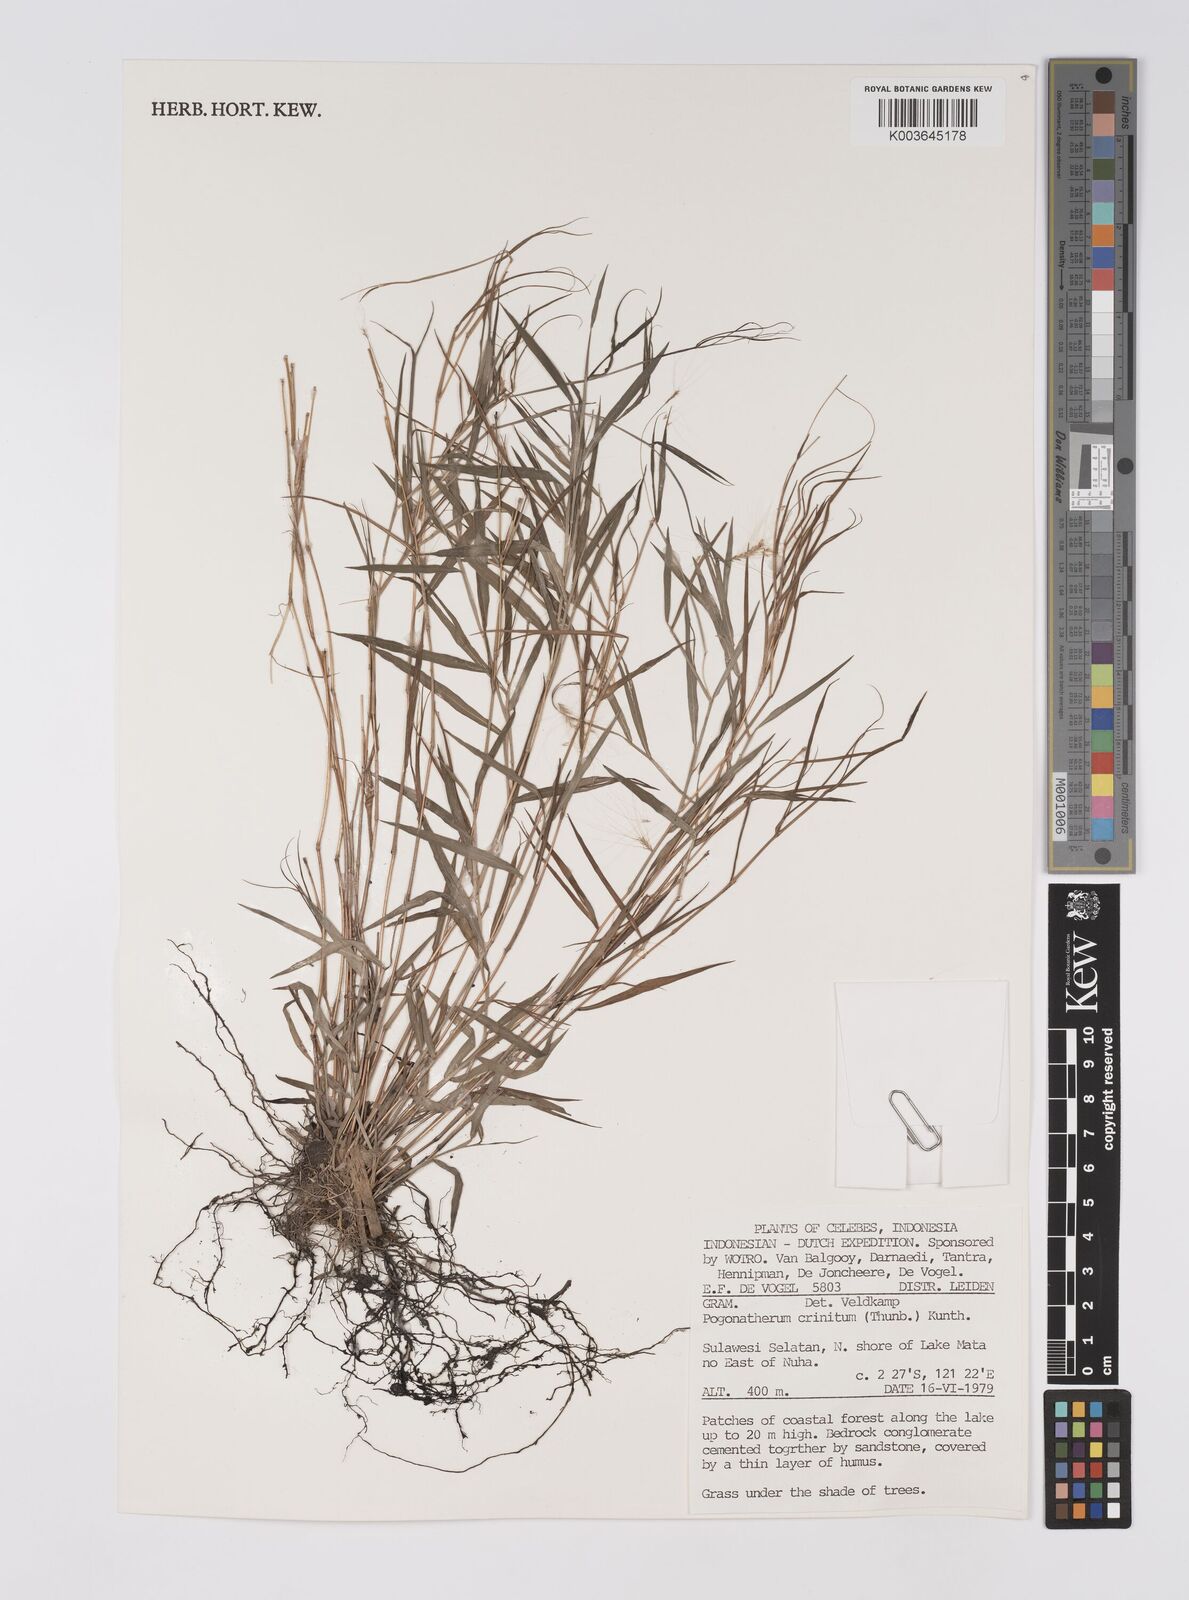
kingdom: Plantae
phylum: Tracheophyta
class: Liliopsida
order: Poales
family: Poaceae
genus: Pogonatherum
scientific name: Pogonatherum crinitum
